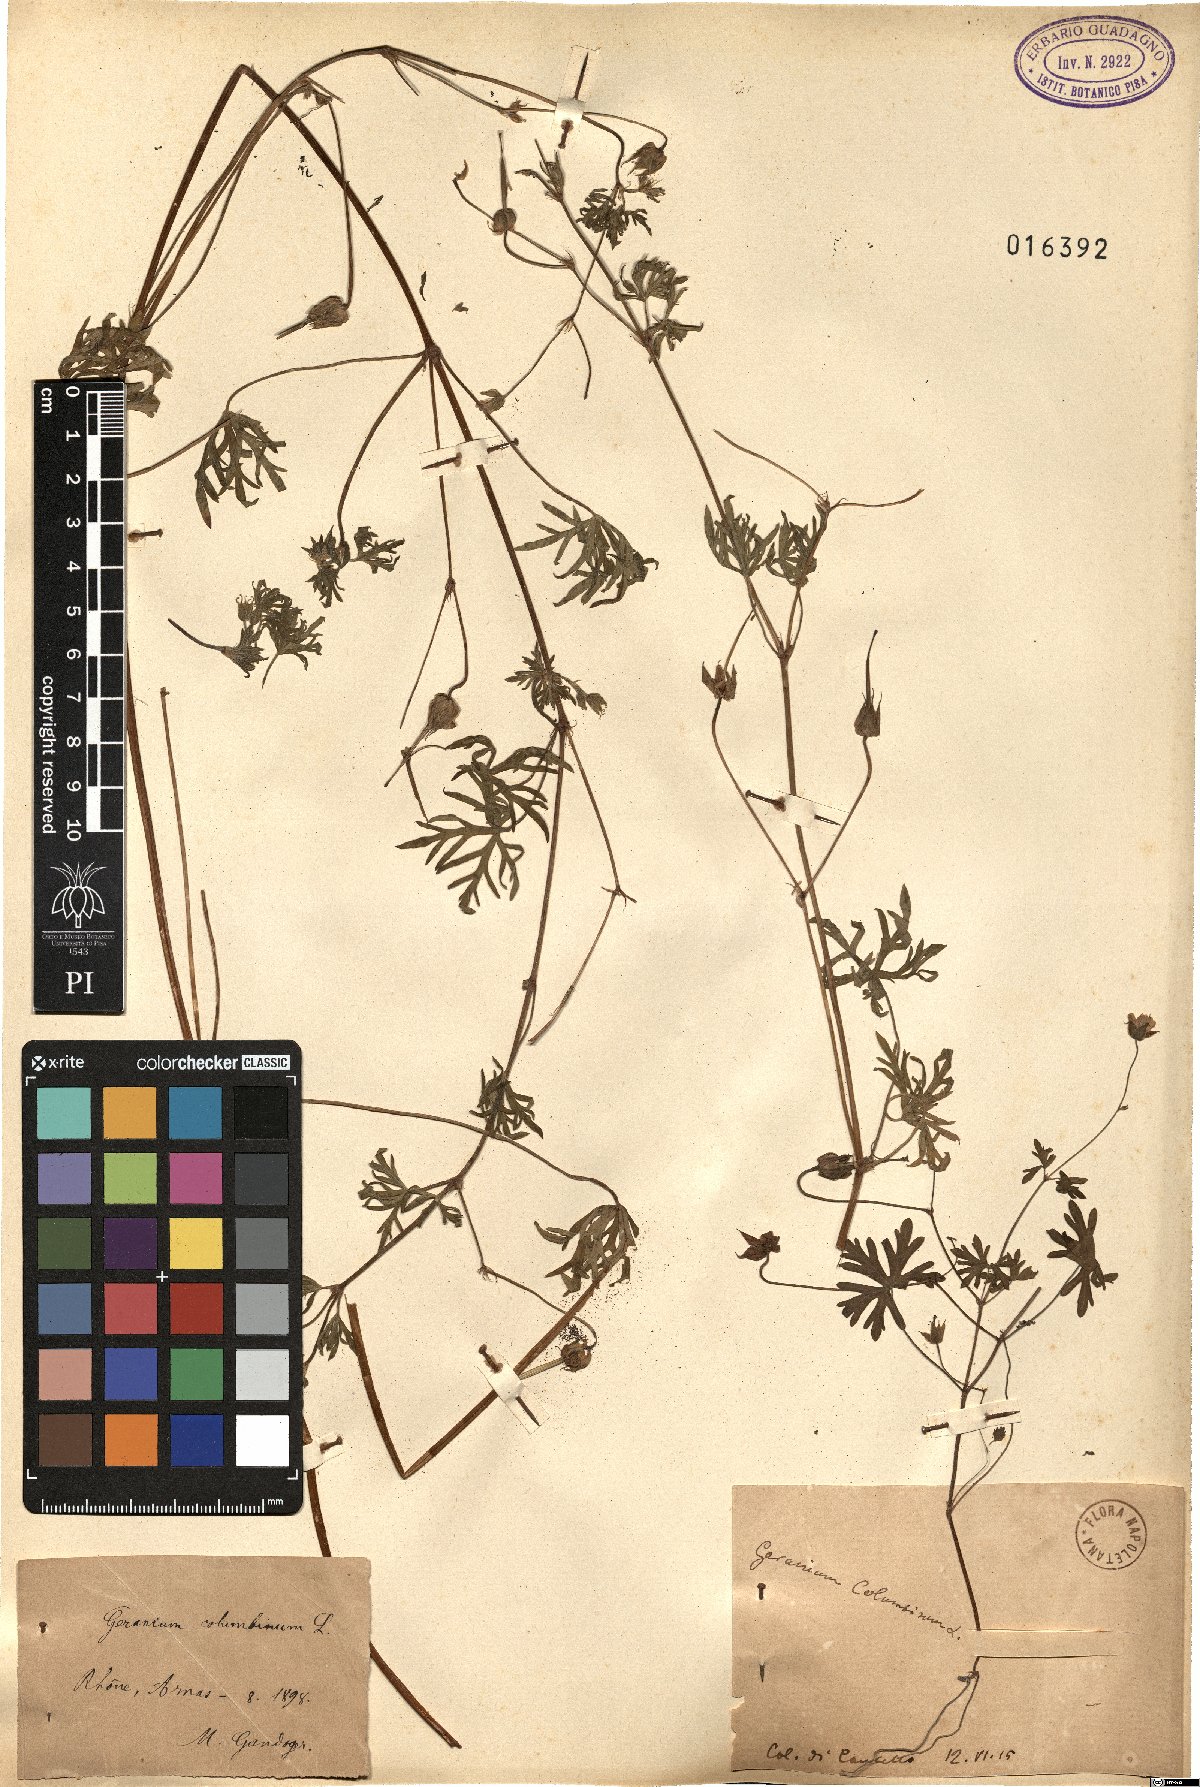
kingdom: Plantae
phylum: Tracheophyta
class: Magnoliopsida
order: Geraniales
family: Geraniaceae
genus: Geranium
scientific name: Geranium columbinum
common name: Long-stalked crane's-bill
